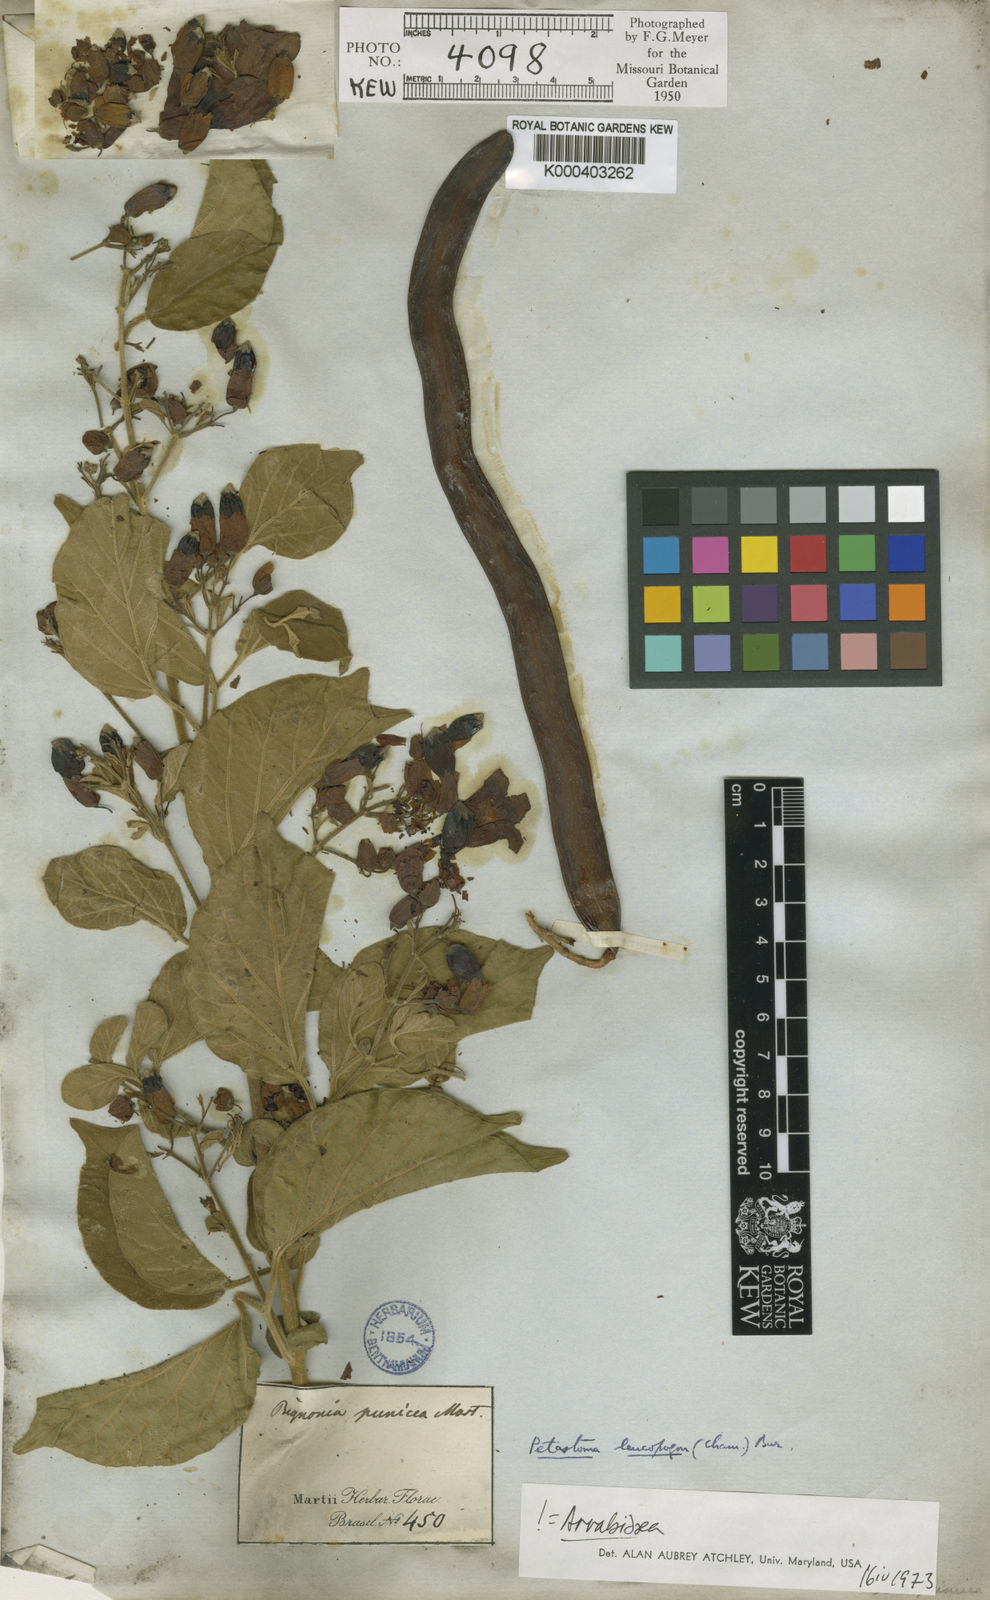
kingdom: Plantae
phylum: Tracheophyta
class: Magnoliopsida
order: Lamiales
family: Bignoniaceae
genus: Fridericia
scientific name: Fridericia leucopogon
